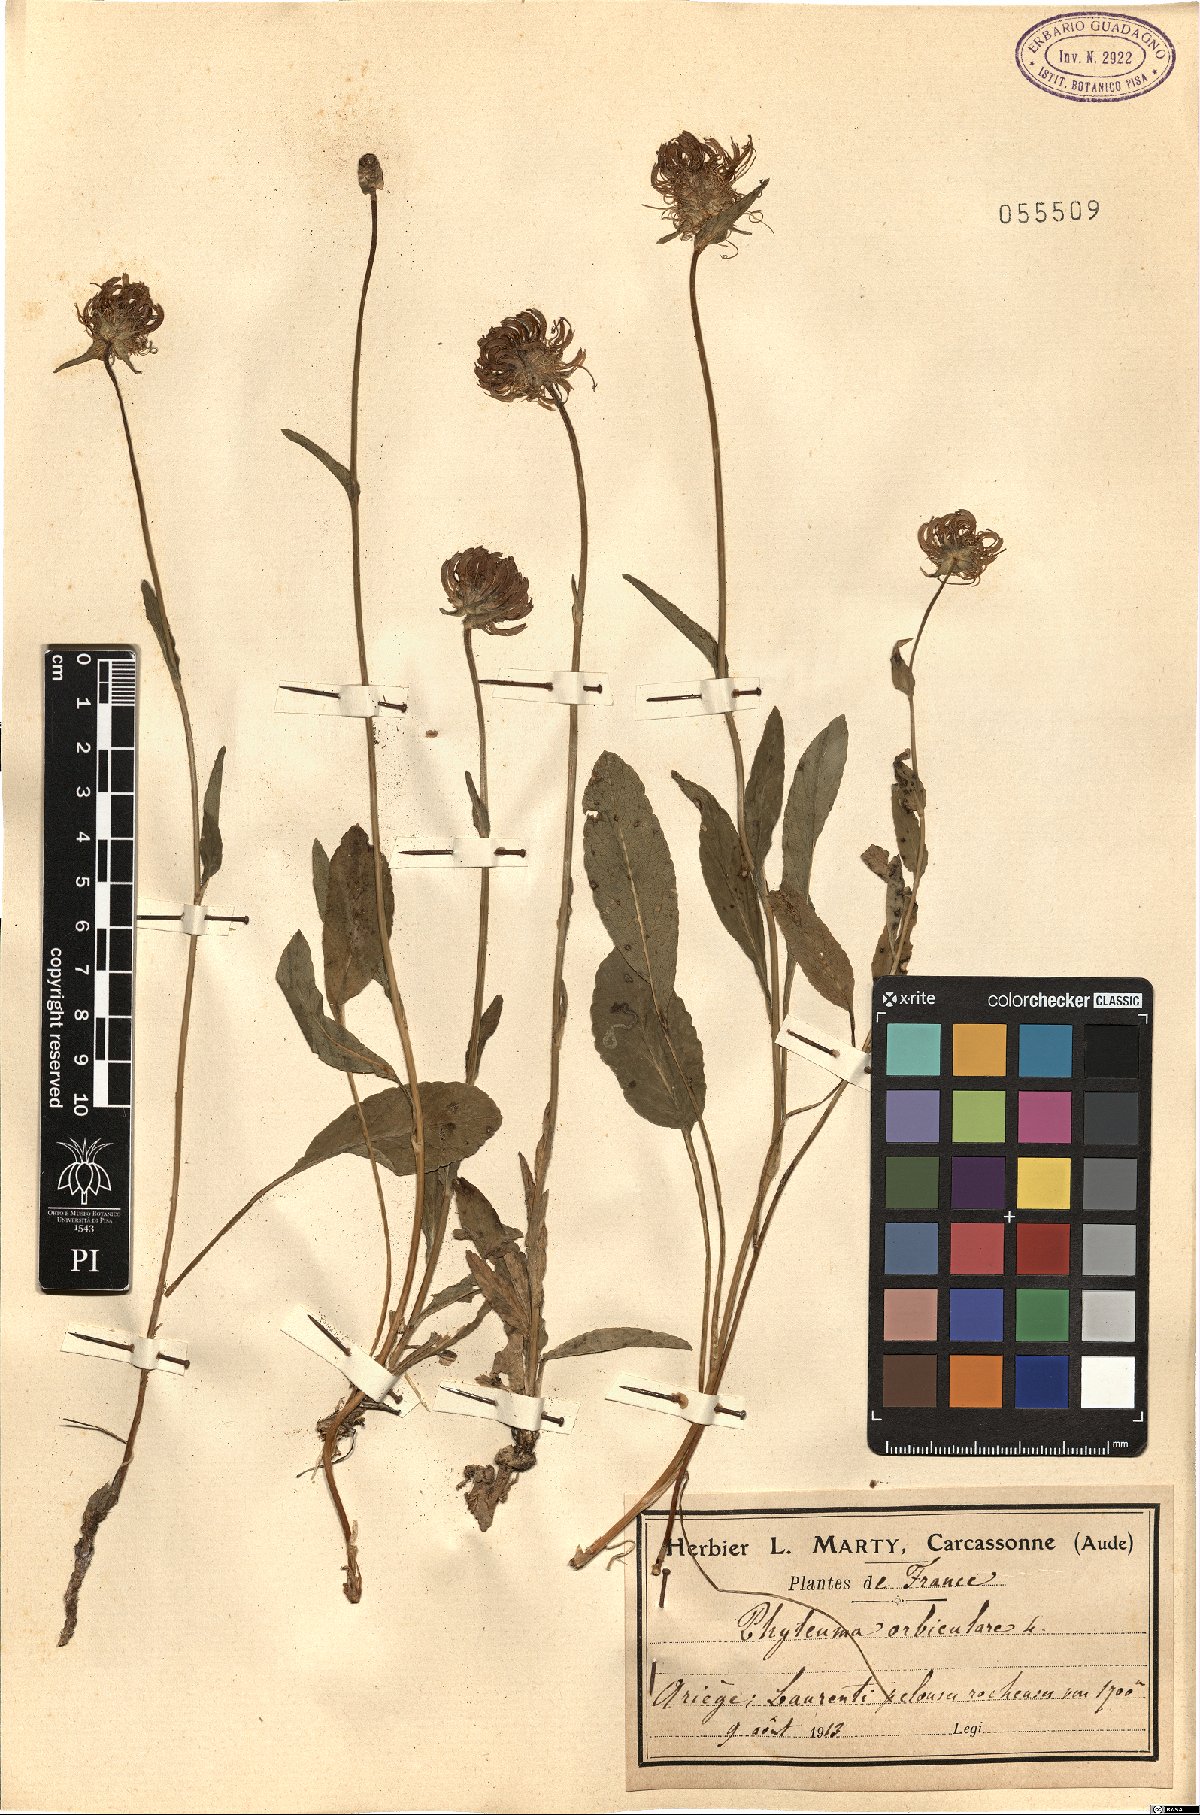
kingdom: Plantae
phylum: Tracheophyta
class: Magnoliopsida
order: Asterales
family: Campanulaceae
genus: Phyteuma
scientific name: Phyteuma orbiculare
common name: Round-headed rampion
